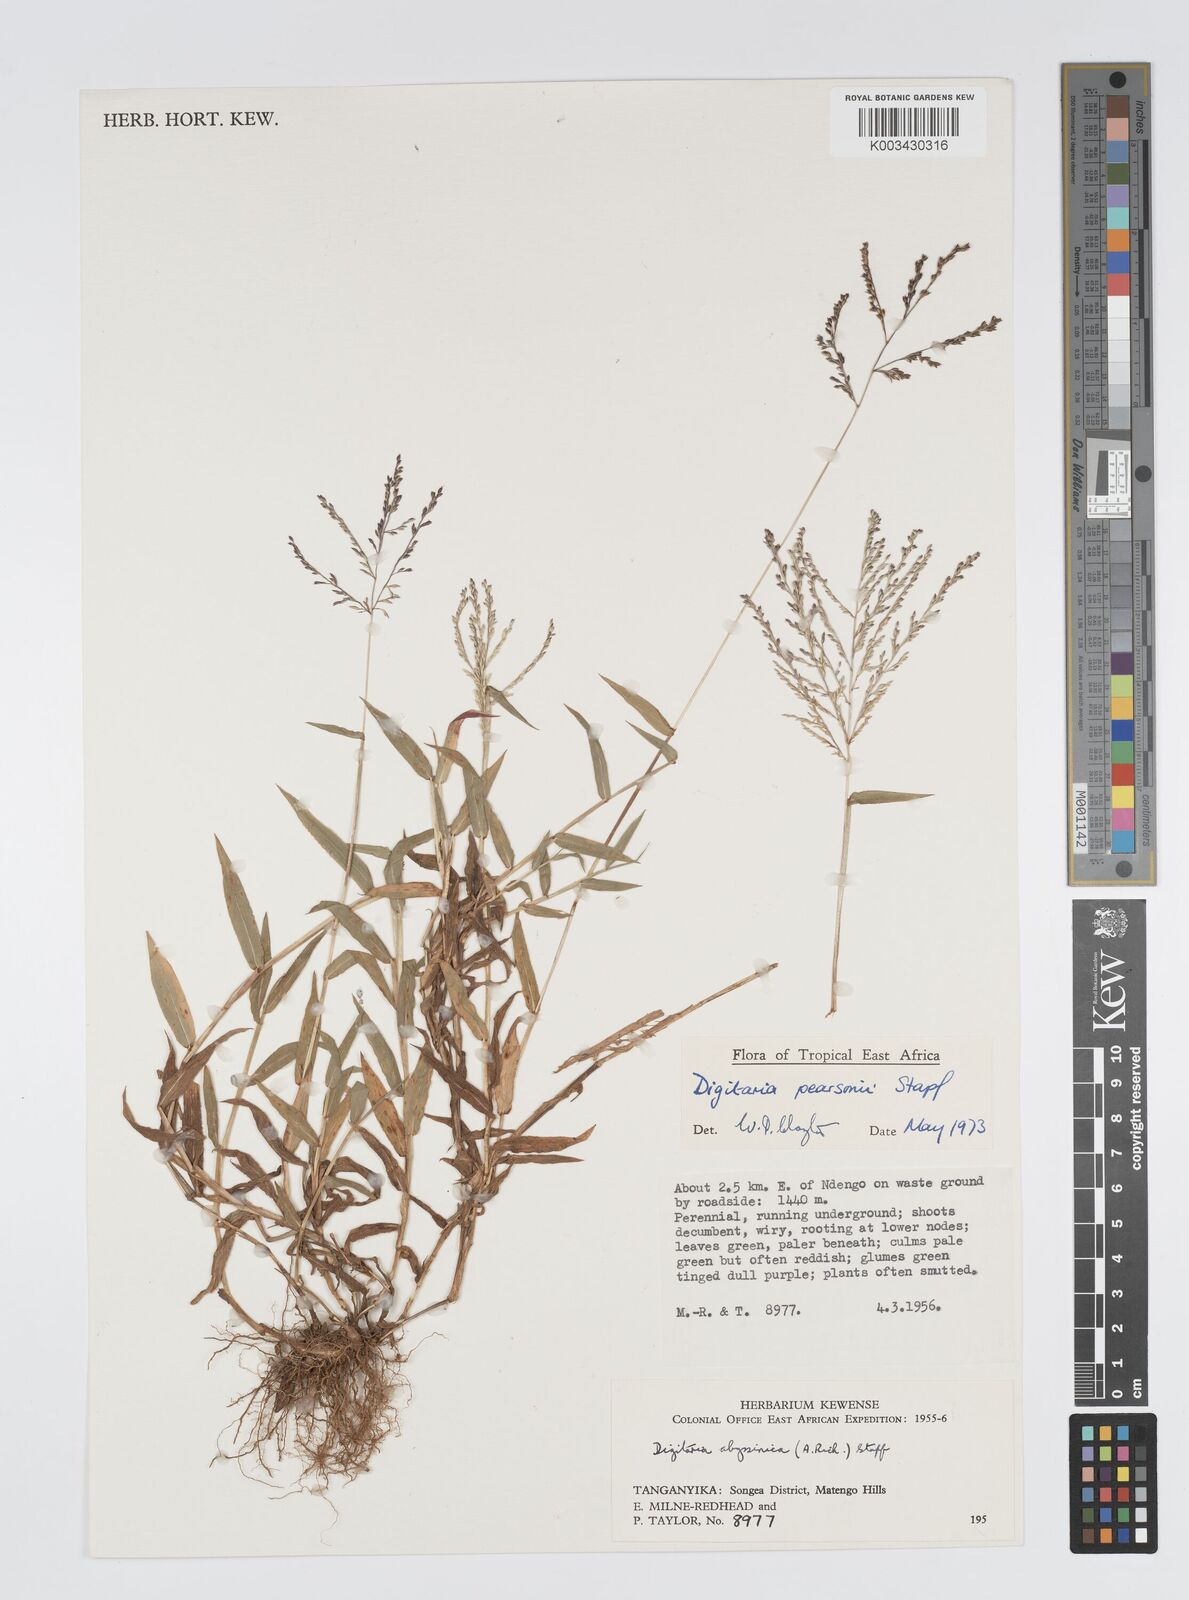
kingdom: Plantae
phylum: Tracheophyta
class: Liliopsida
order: Poales
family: Poaceae
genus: Digitaria
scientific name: Digitaria pearsonii
